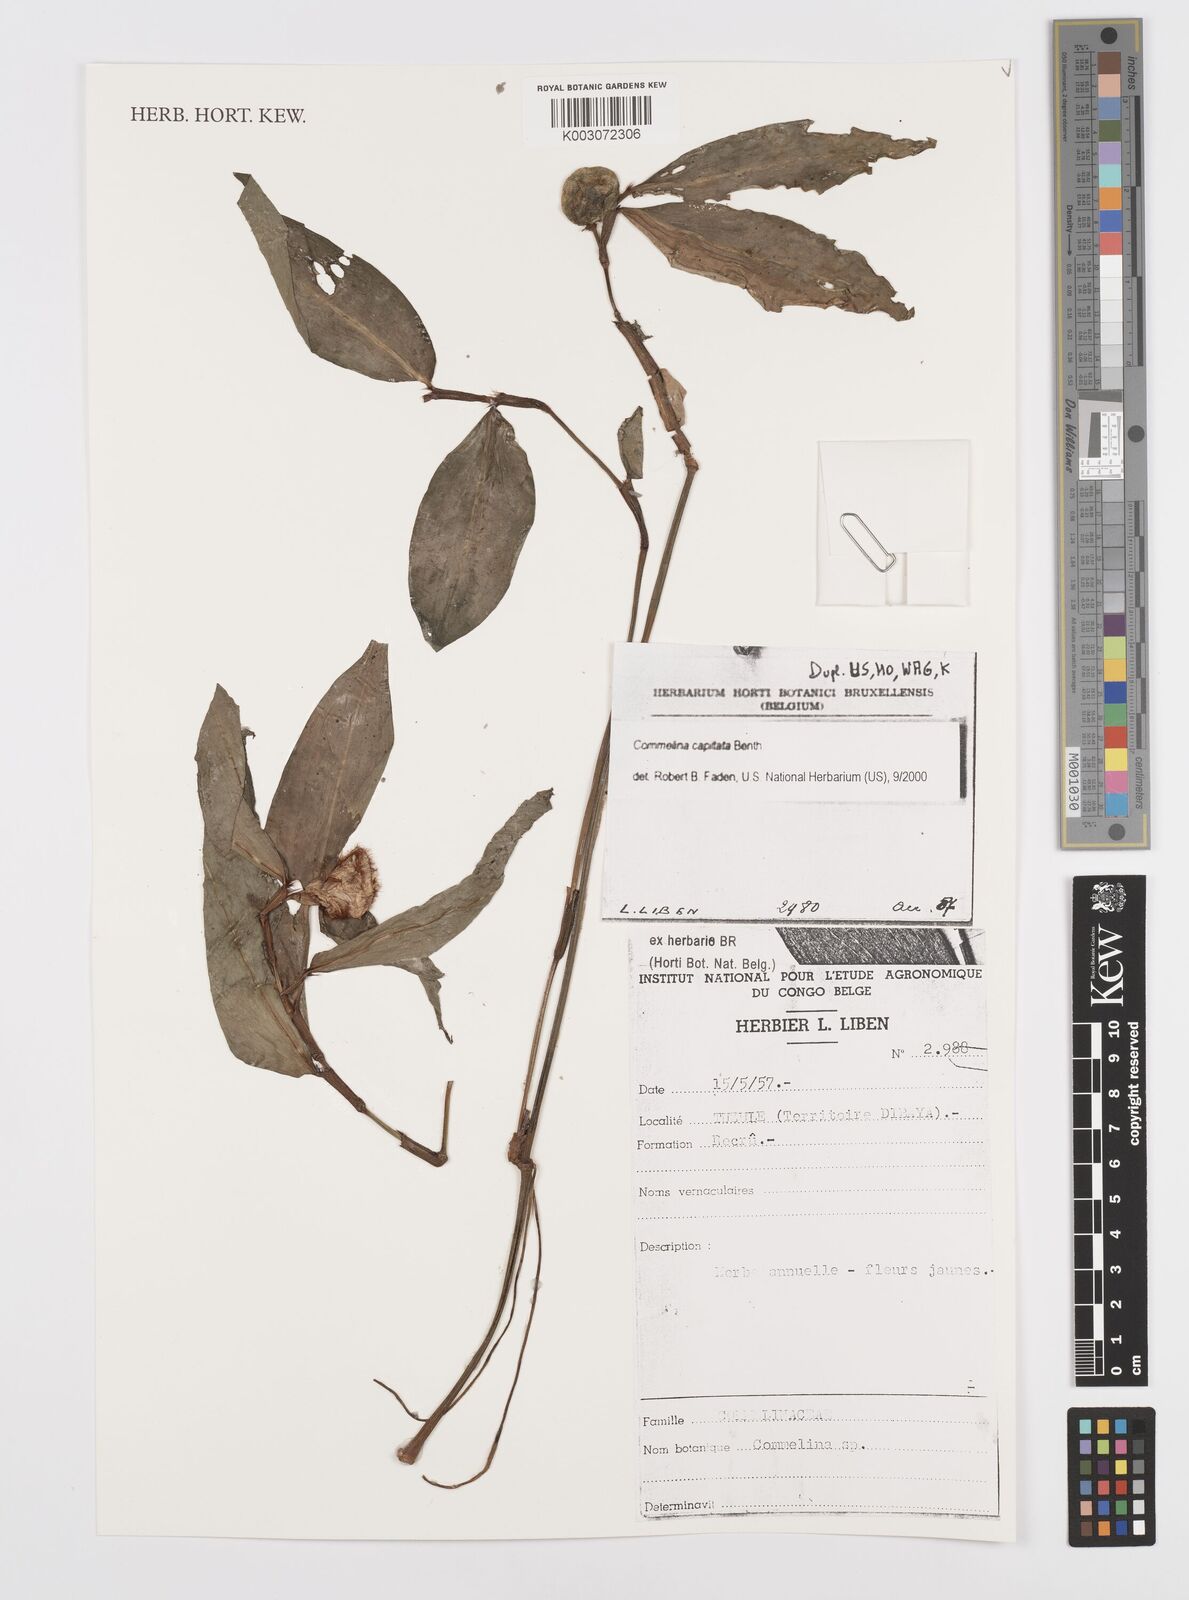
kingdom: Plantae
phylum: Tracheophyta
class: Liliopsida
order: Commelinales
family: Commelinaceae
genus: Commelina
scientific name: Commelina capitata
